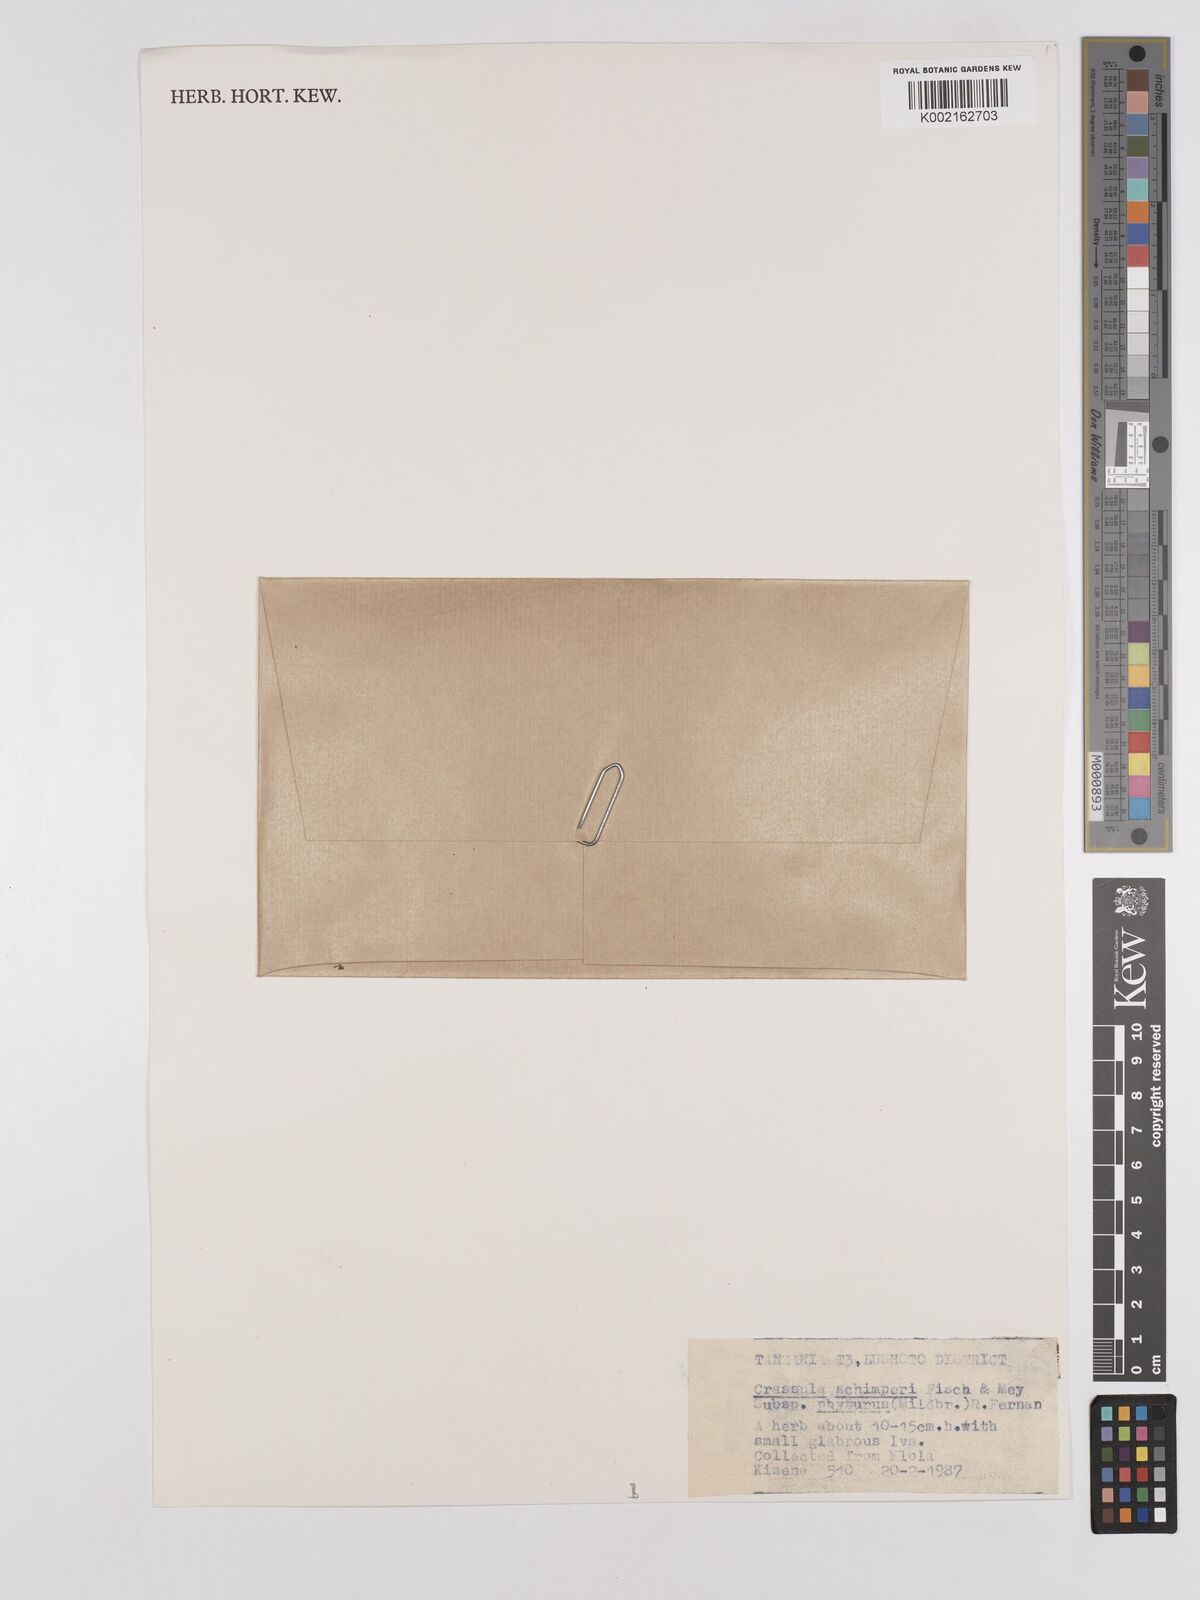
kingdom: Plantae
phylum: Tracheophyta
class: Magnoliopsida
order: Saxifragales
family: Crassulaceae
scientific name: Crassulaceae
